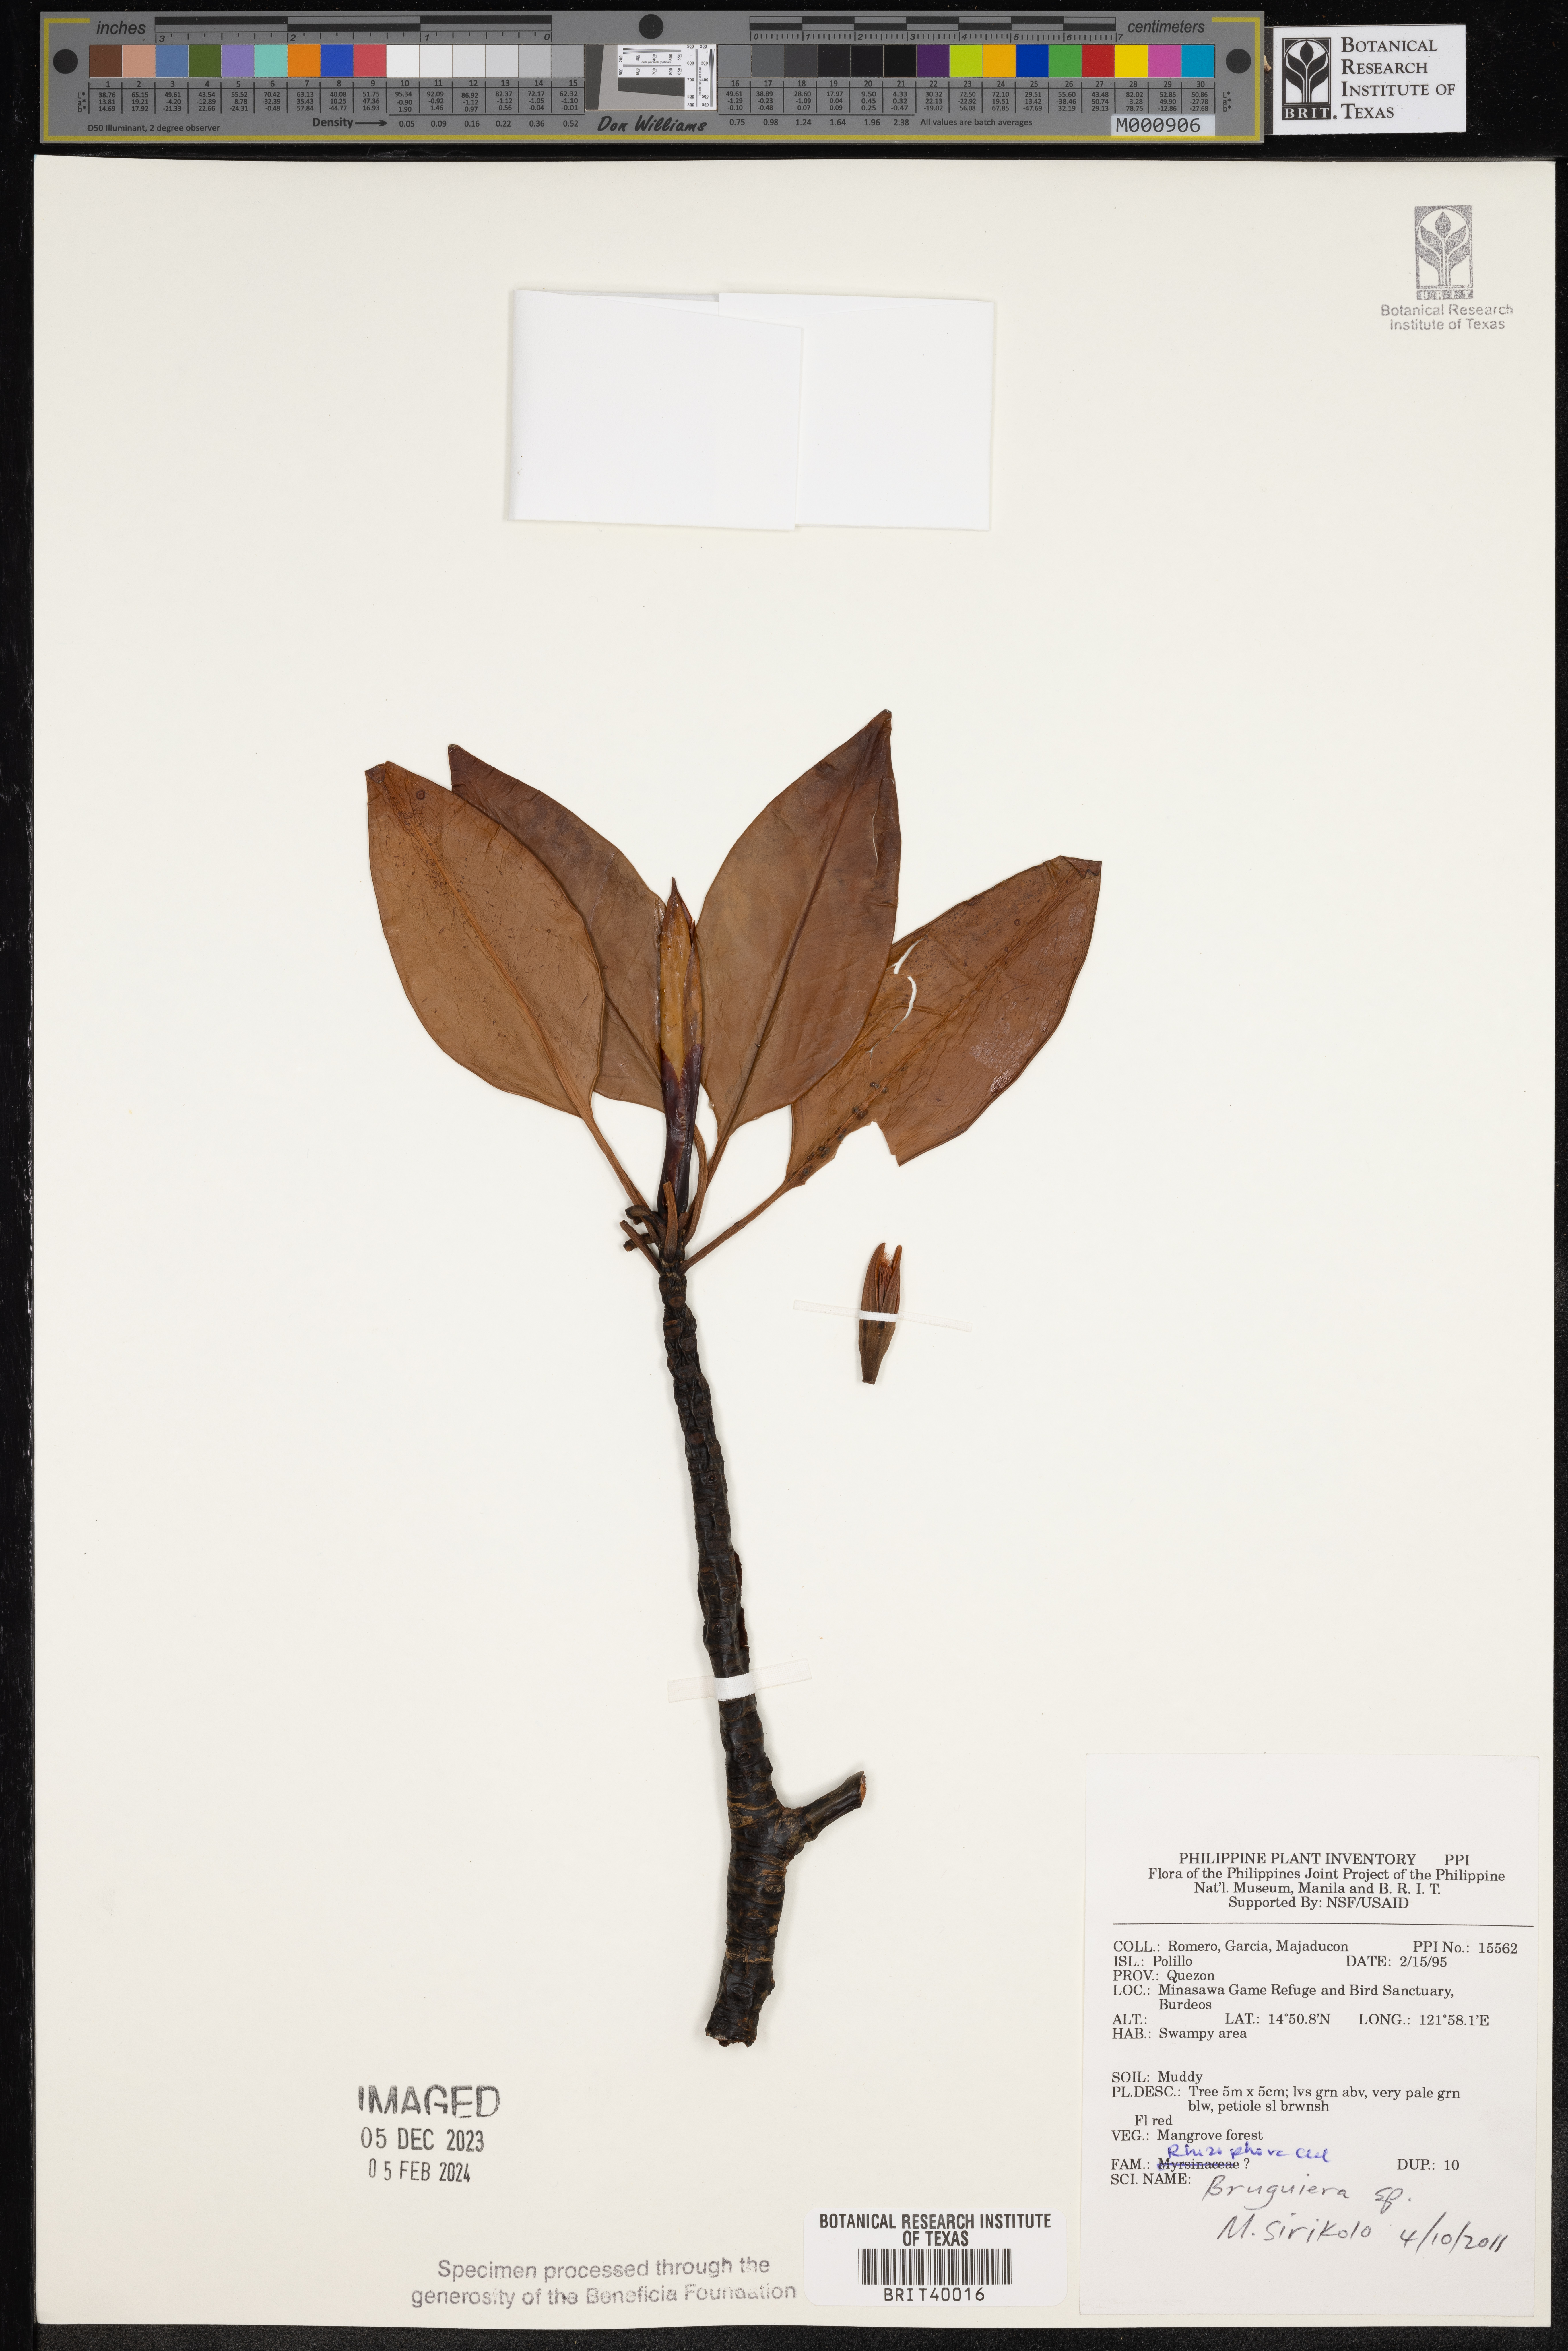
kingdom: Plantae
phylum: Tracheophyta
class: Magnoliopsida
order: Malpighiales
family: Rhizophoraceae
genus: Bruguiera
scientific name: Bruguiera
